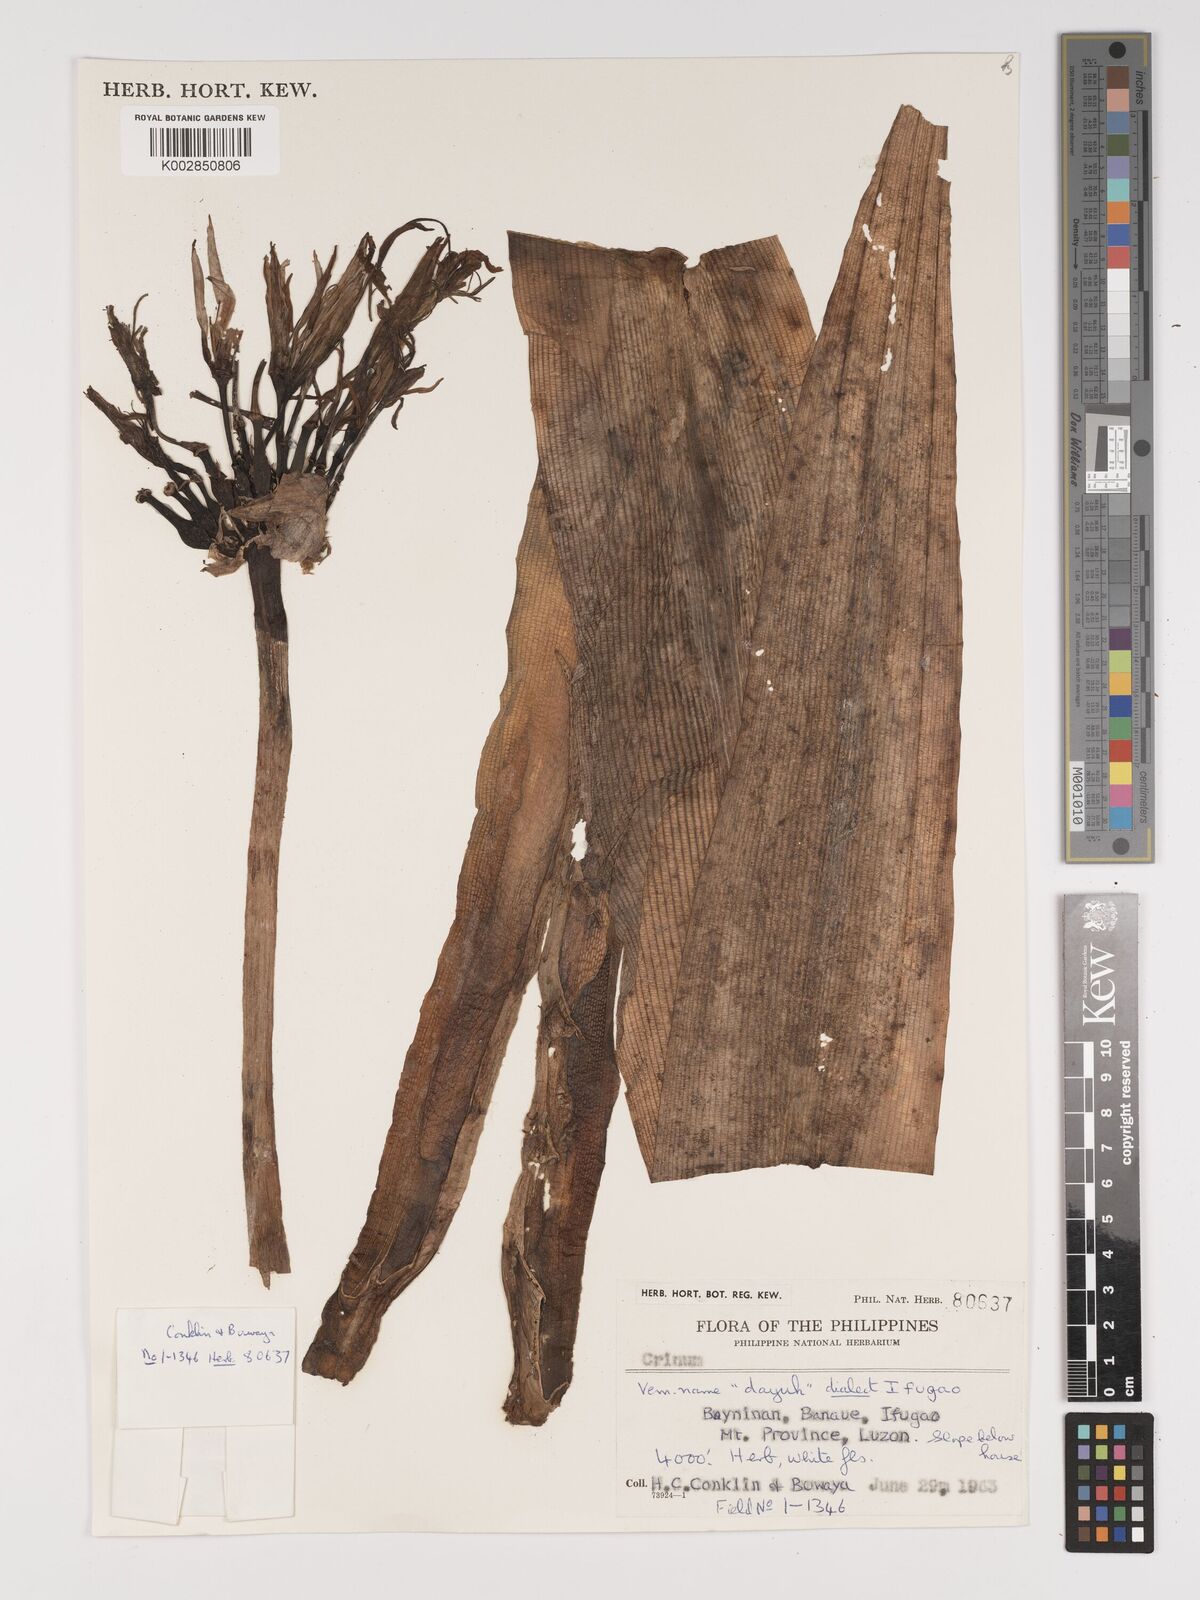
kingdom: Plantae
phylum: Tracheophyta
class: Liliopsida
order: Asparagales
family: Amaryllidaceae
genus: Crinum
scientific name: Crinum
